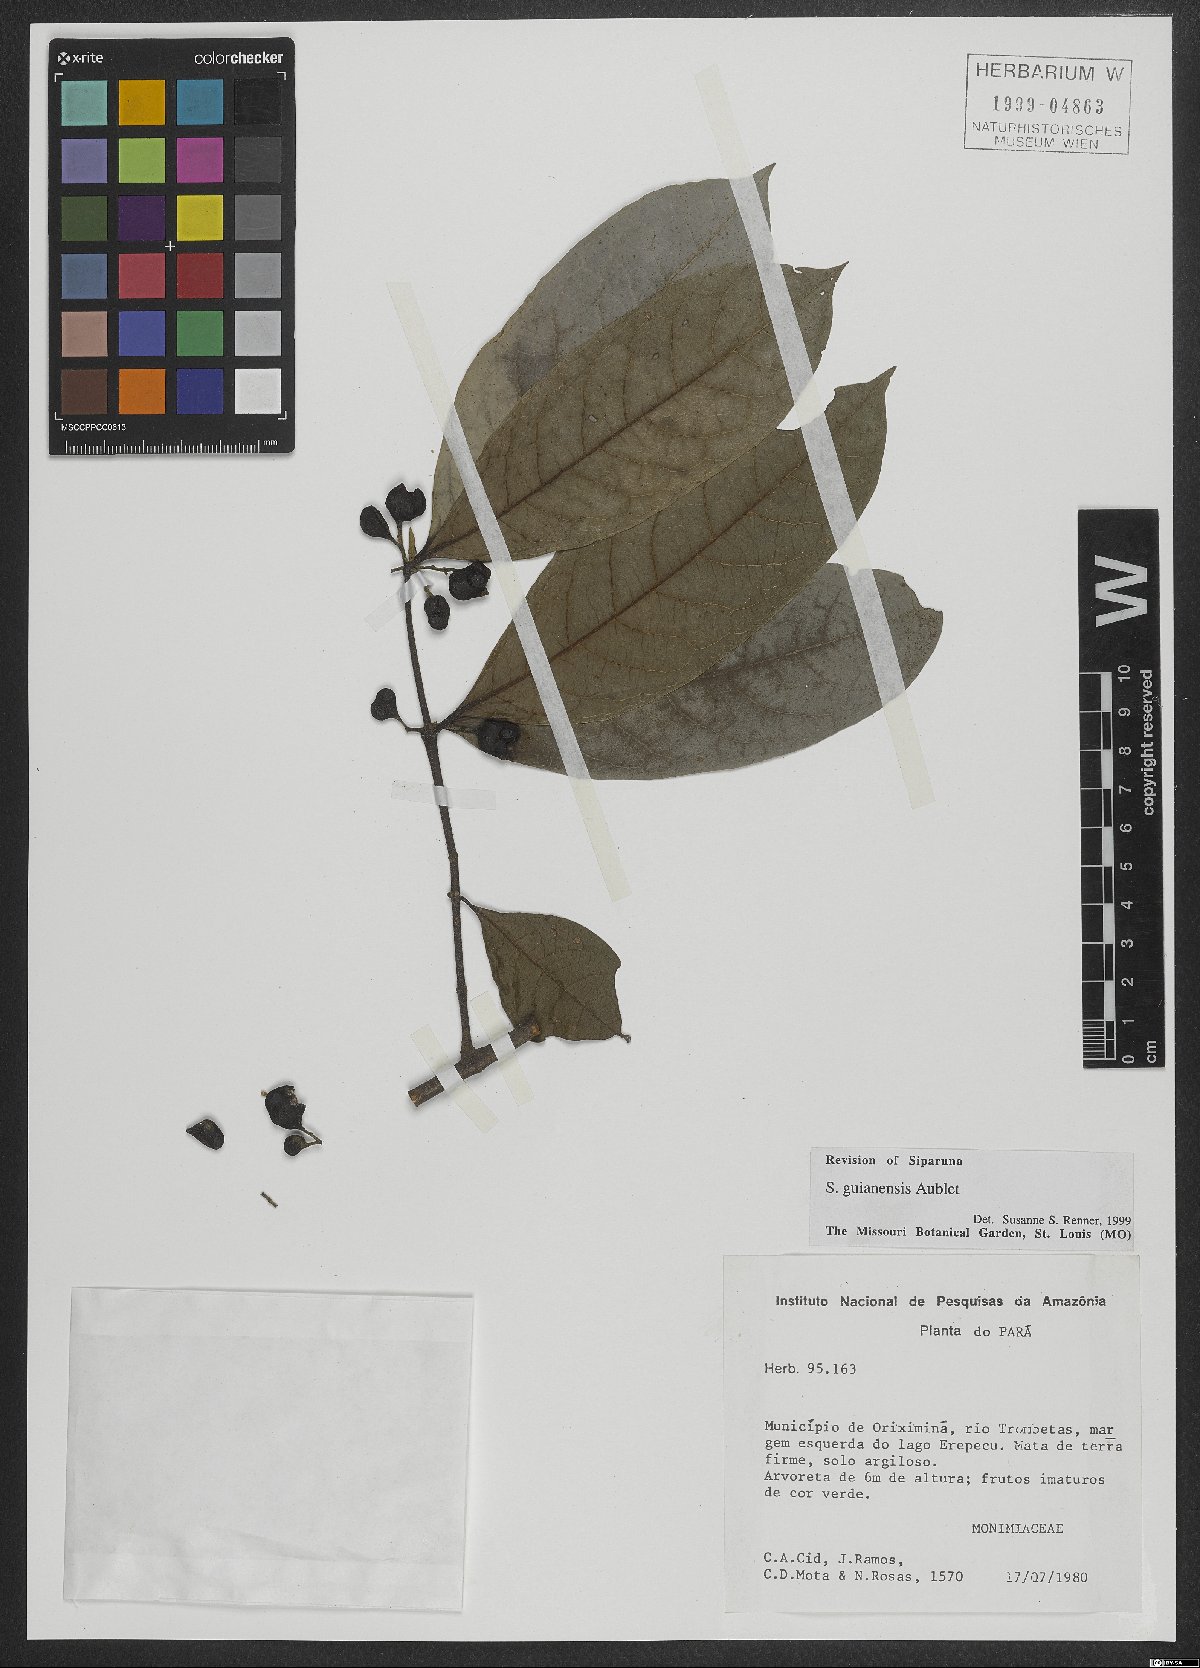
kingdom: Plantae
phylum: Tracheophyta
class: Magnoliopsida
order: Laurales
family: Siparunaceae
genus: Siparuna
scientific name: Siparuna guianensis
